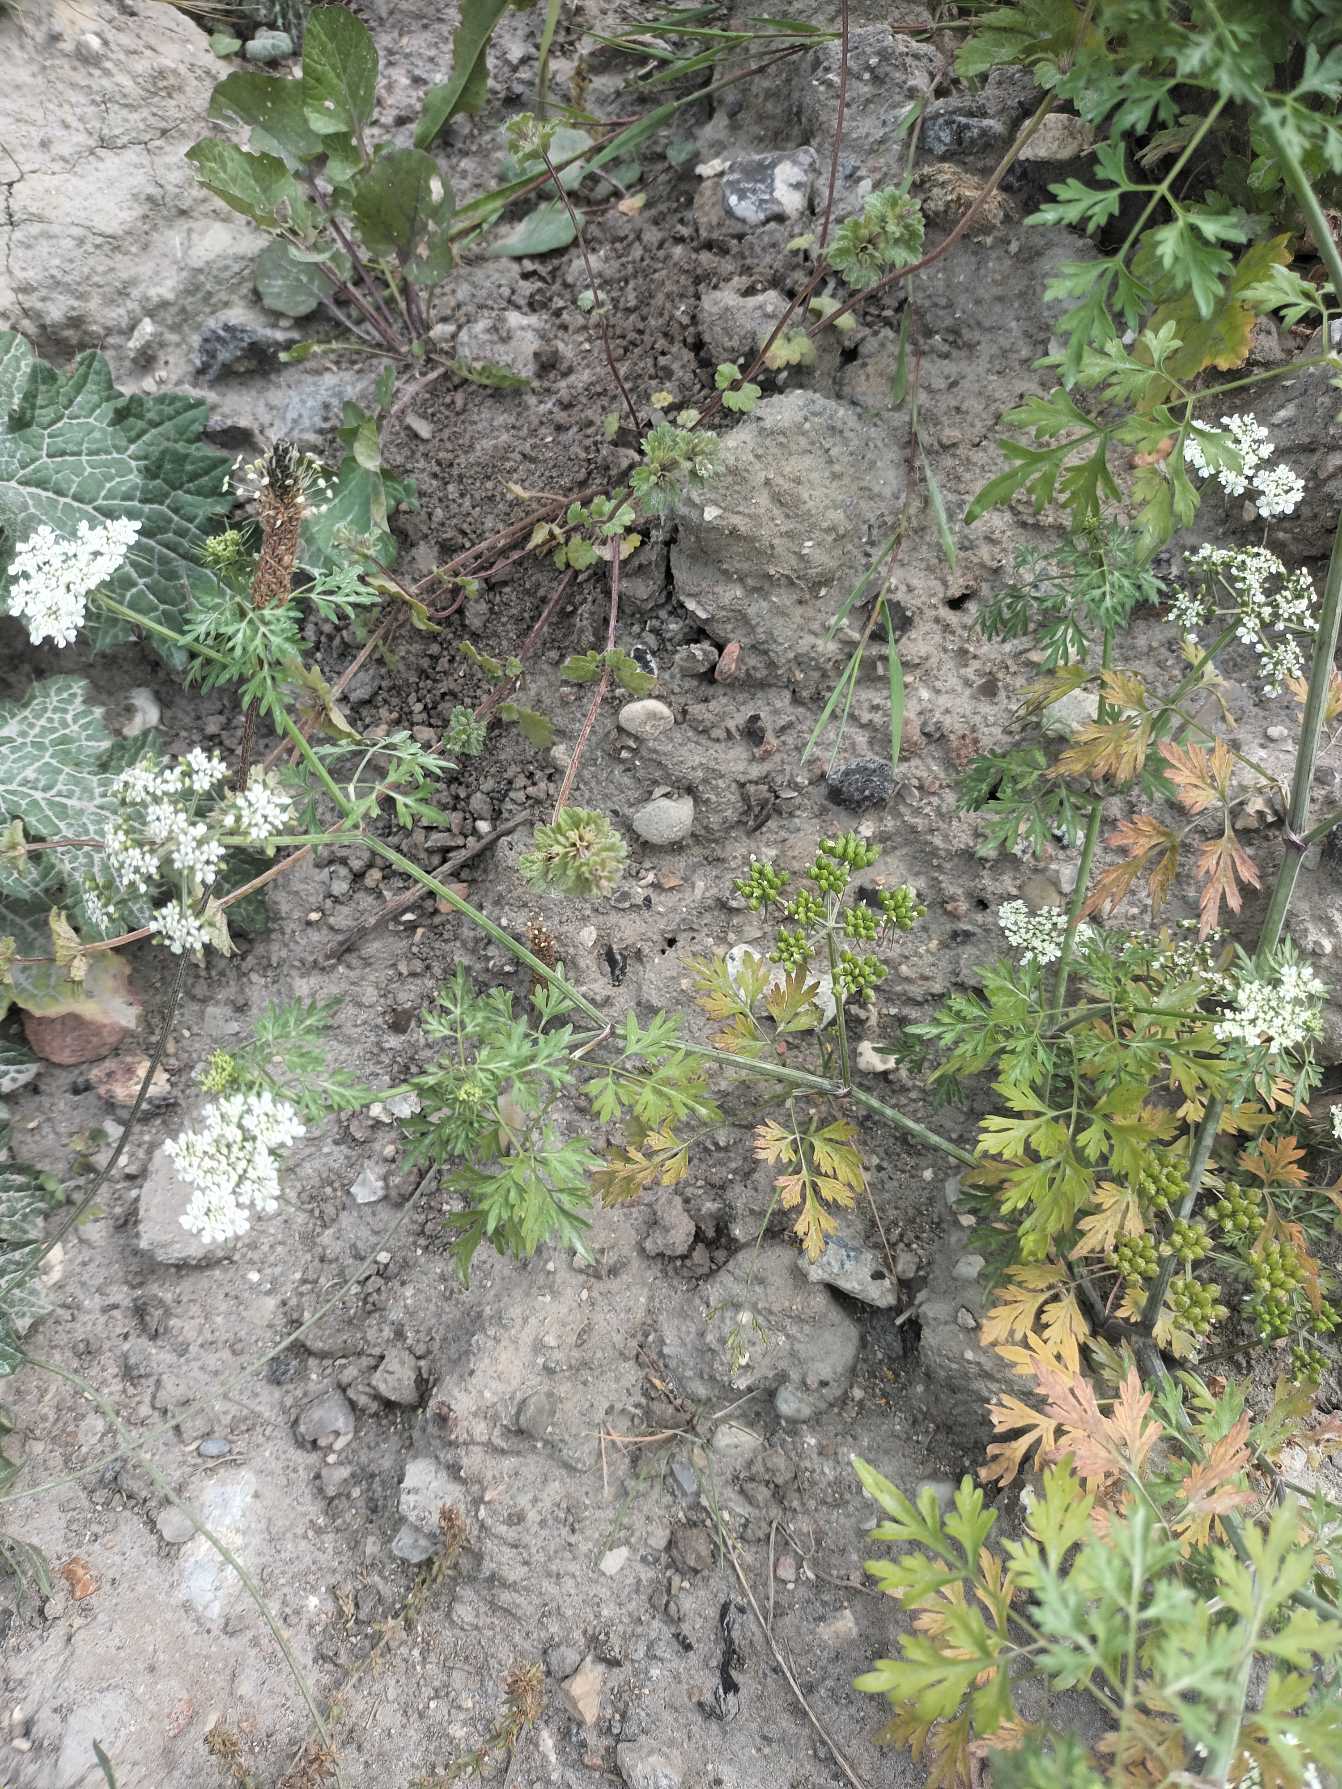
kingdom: Plantae
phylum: Tracheophyta
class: Magnoliopsida
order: Apiales
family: Apiaceae
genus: Aethusa
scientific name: Aethusa cynapium
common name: Hundepersille
